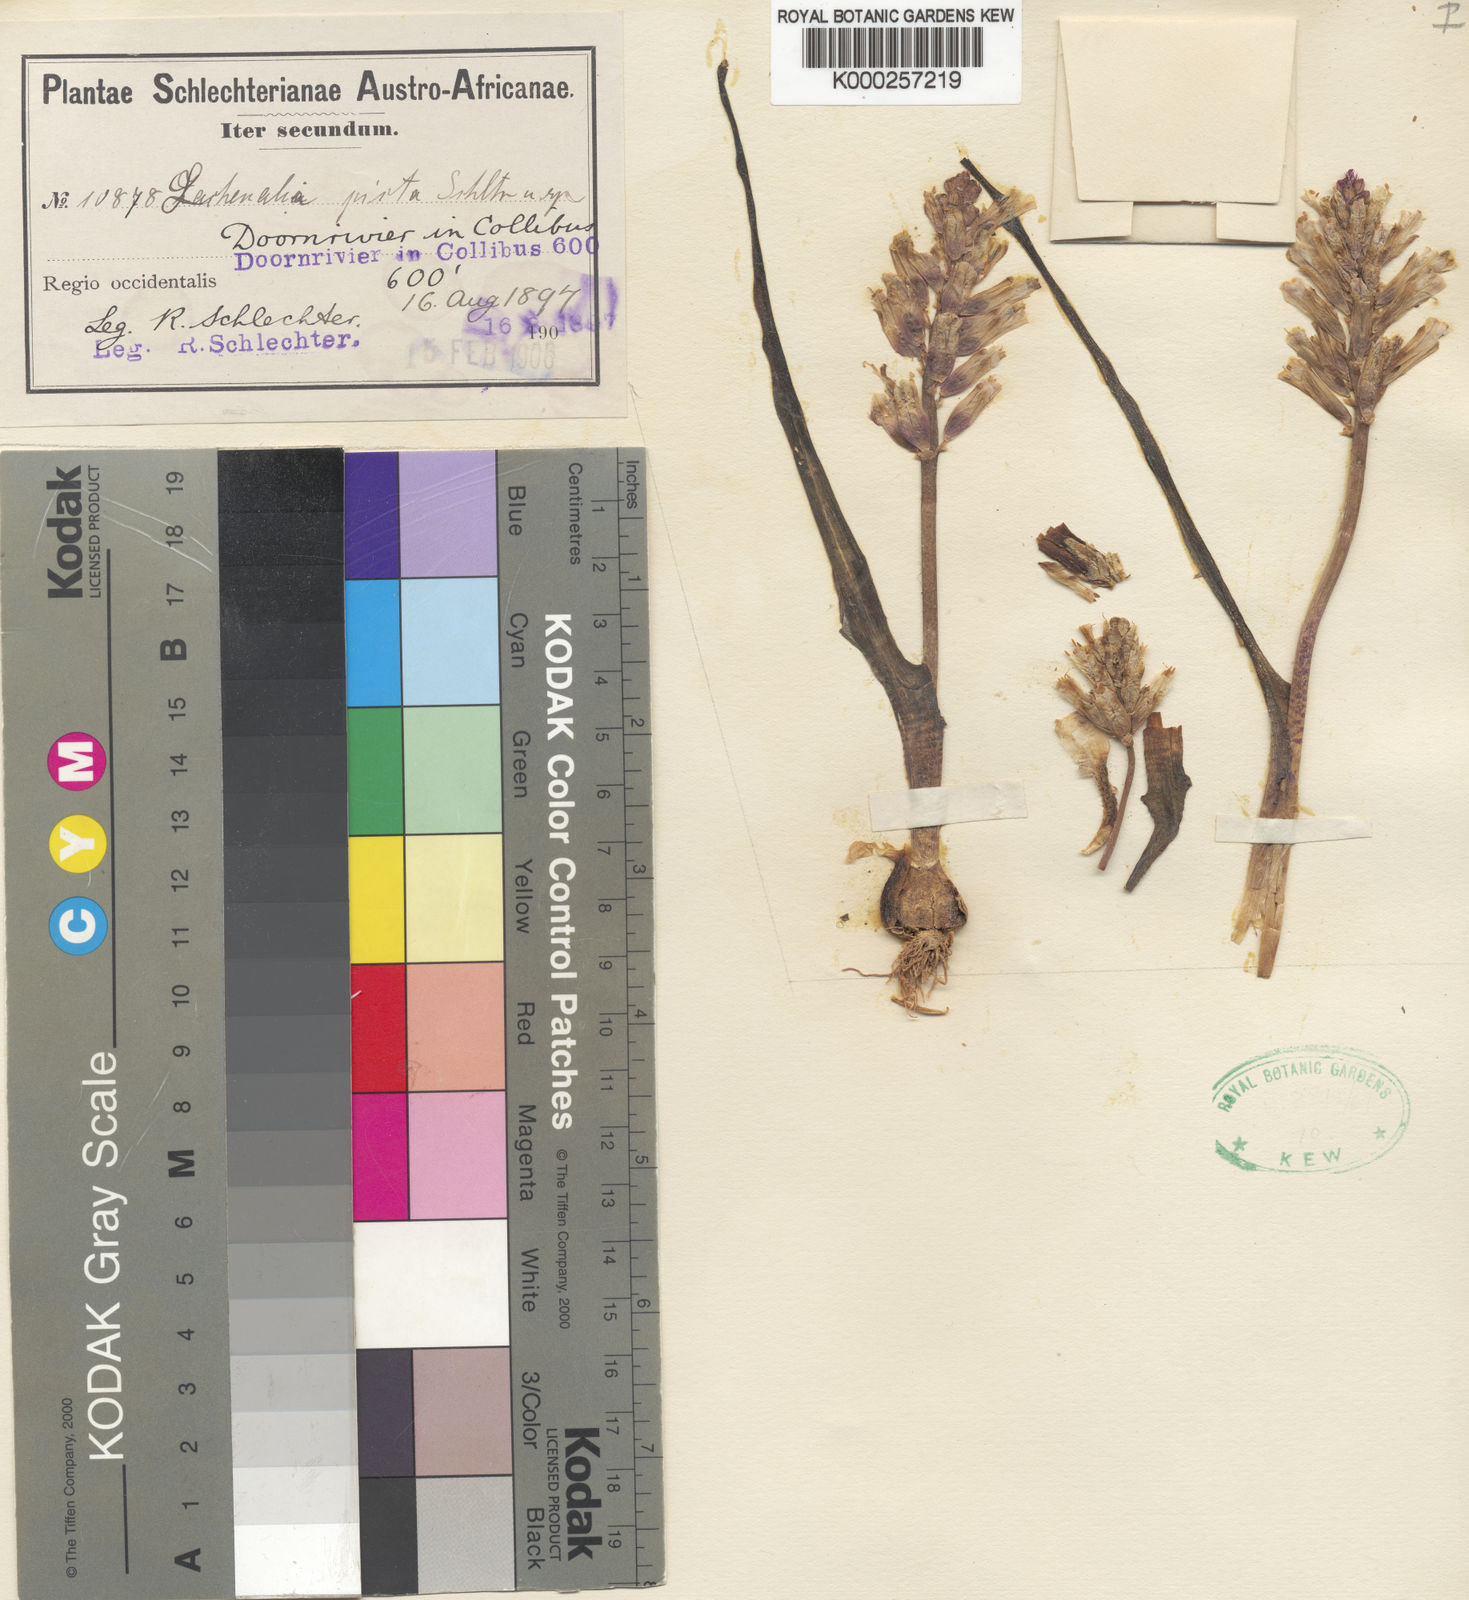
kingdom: Plantae
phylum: Tracheophyta
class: Liliopsida
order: Asparagales
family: Asparagaceae
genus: Lachenalia
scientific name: Lachenalia
